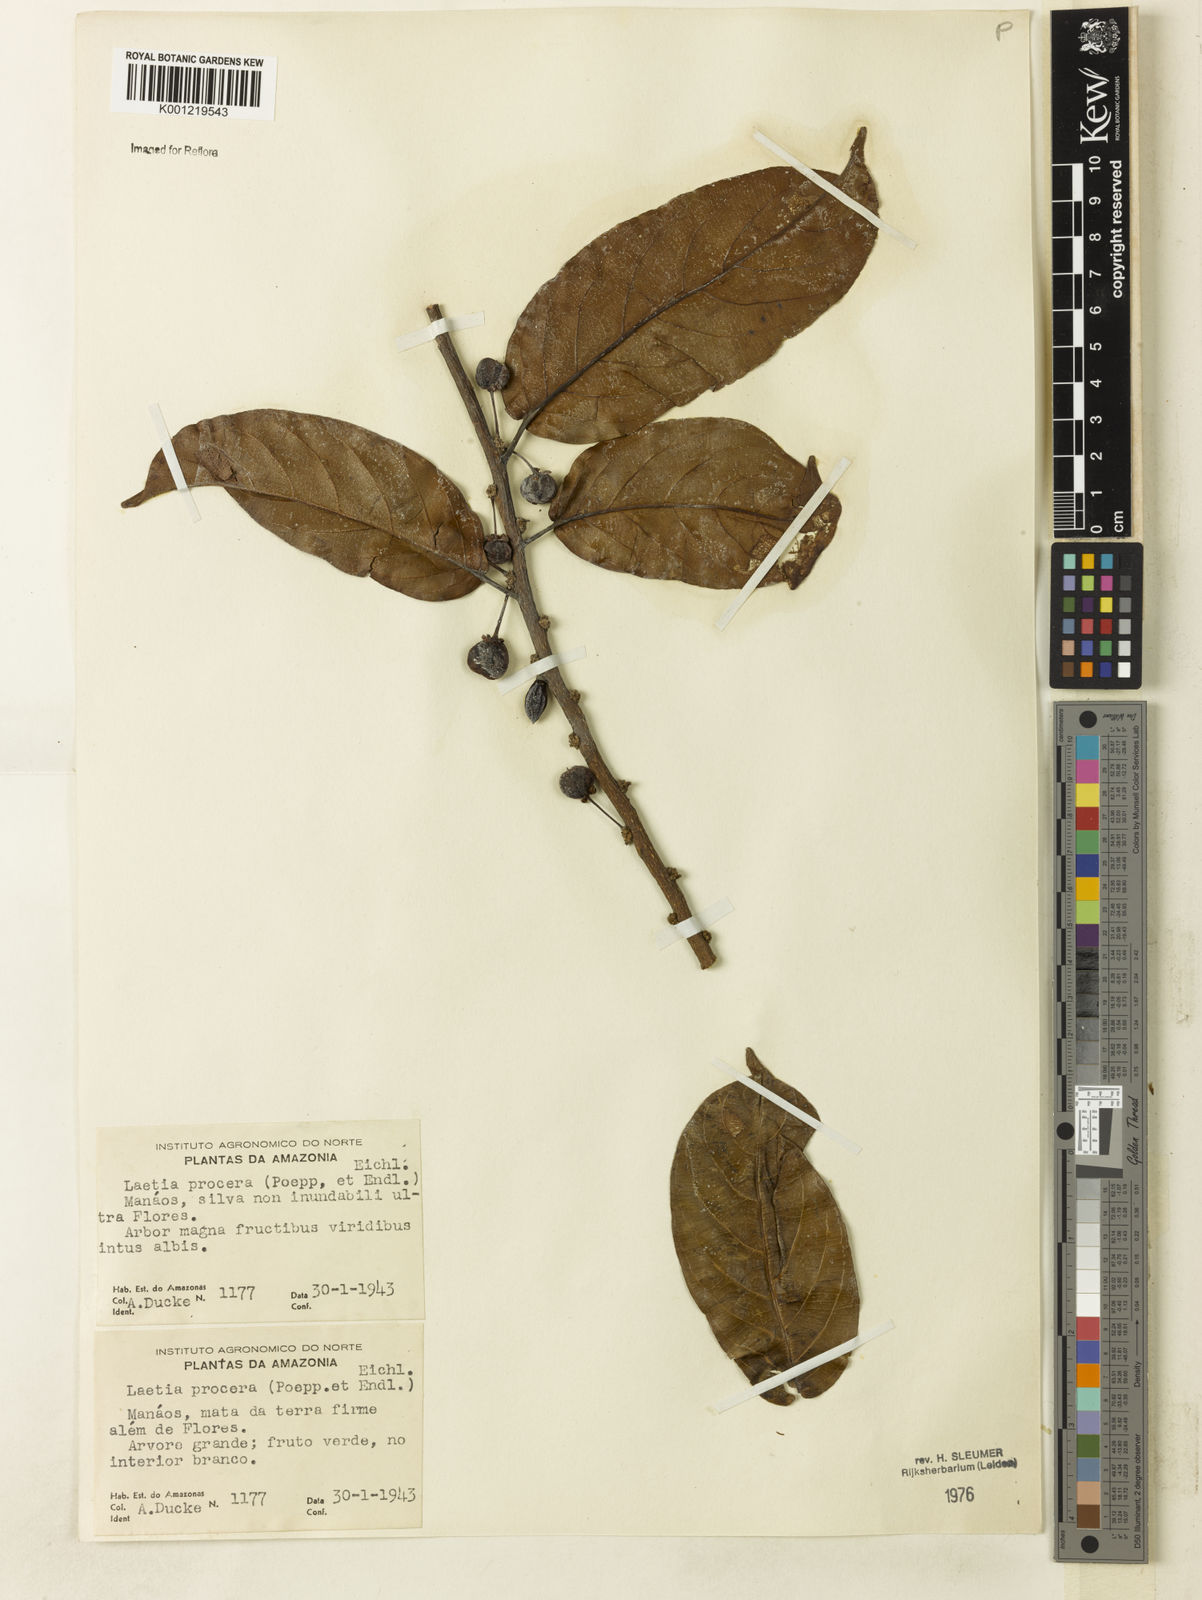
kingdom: Plantae
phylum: Tracheophyta
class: Magnoliopsida
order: Malpighiales
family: Salicaceae
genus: Casearia
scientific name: Casearia bicolor
